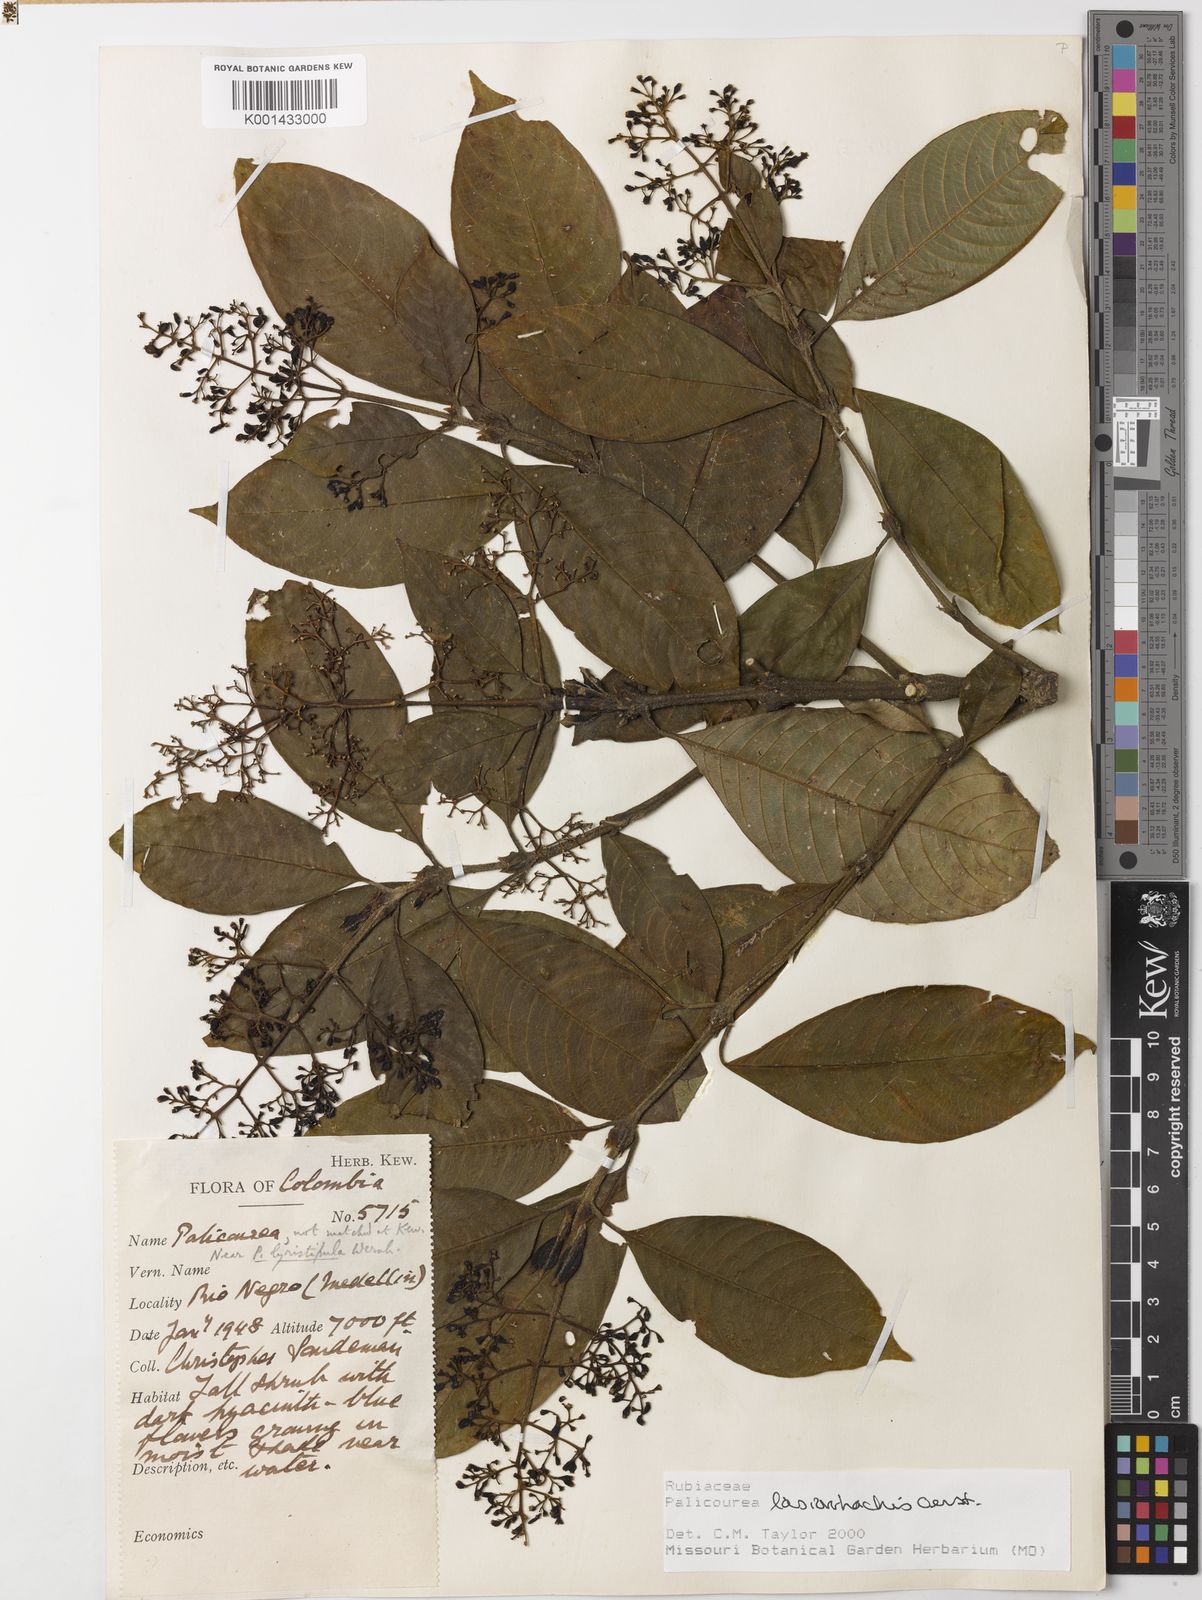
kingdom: Plantae
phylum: Tracheophyta
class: Magnoliopsida
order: Gentianales
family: Rubiaceae
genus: Palicourea
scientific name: Palicourea lasiorrhachis
